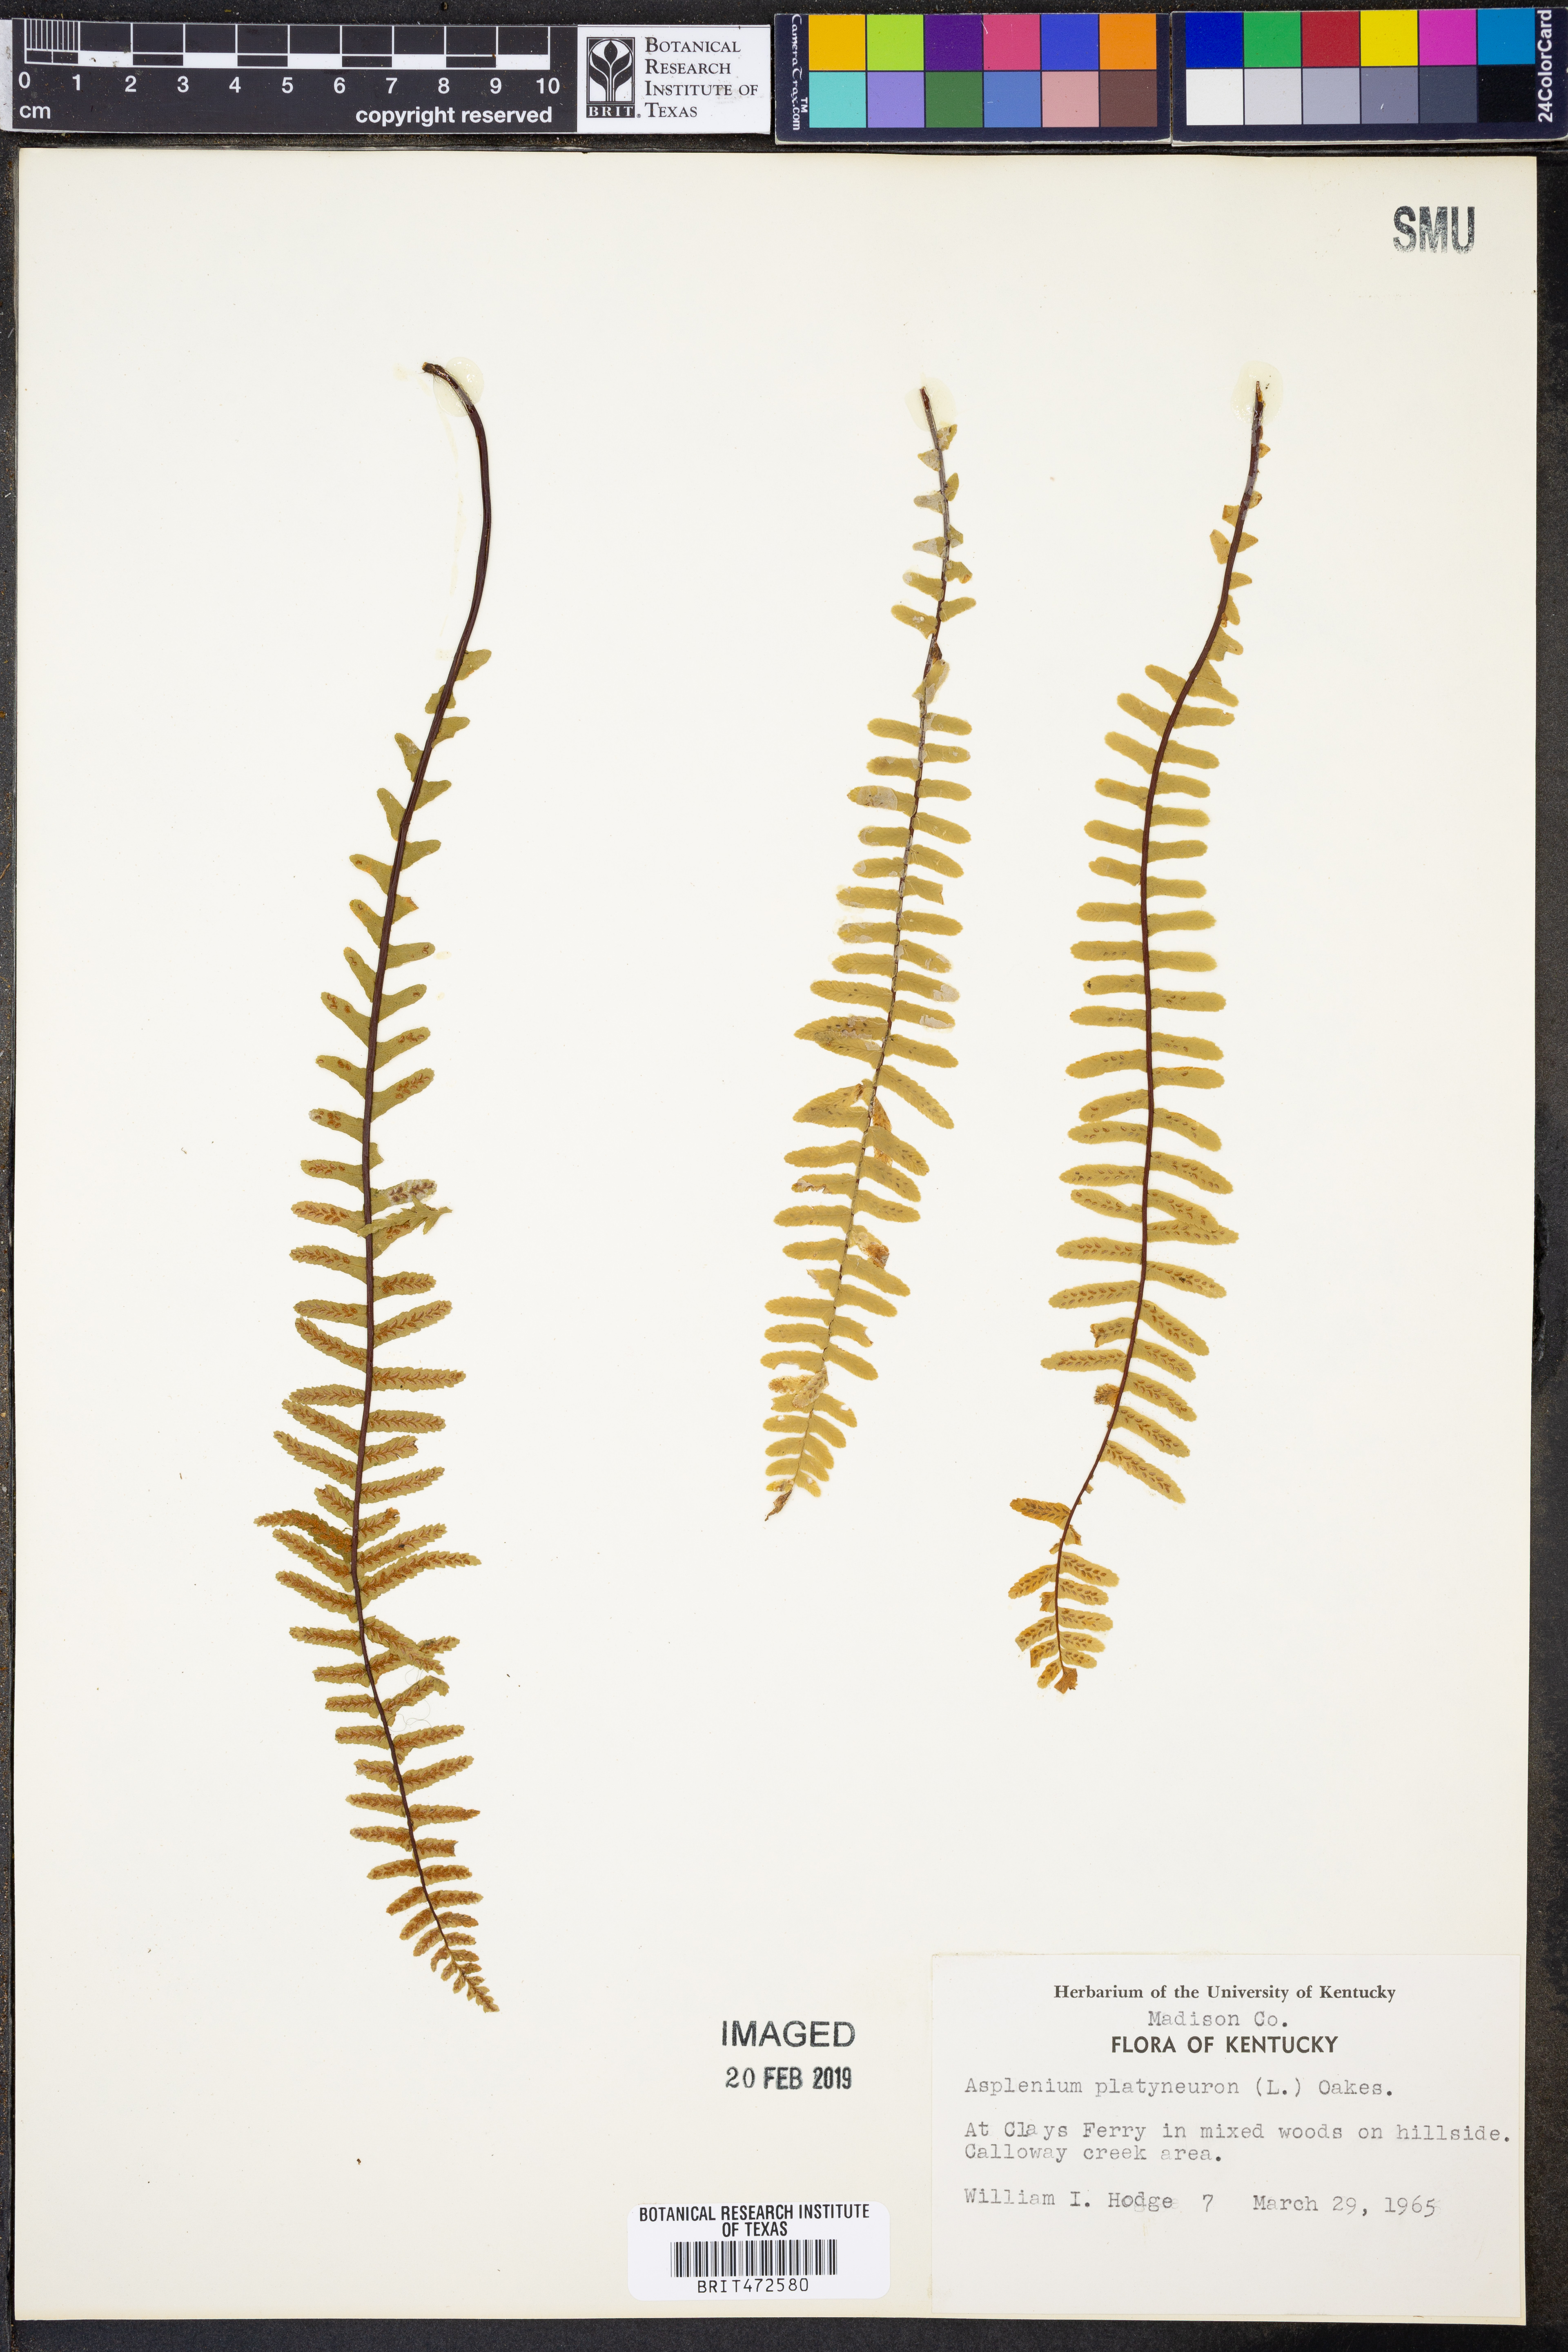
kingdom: Plantae
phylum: Tracheophyta
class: Polypodiopsida
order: Polypodiales
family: Aspleniaceae
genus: Asplenium
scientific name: Asplenium platyneuron
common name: Ebony spleenwort
